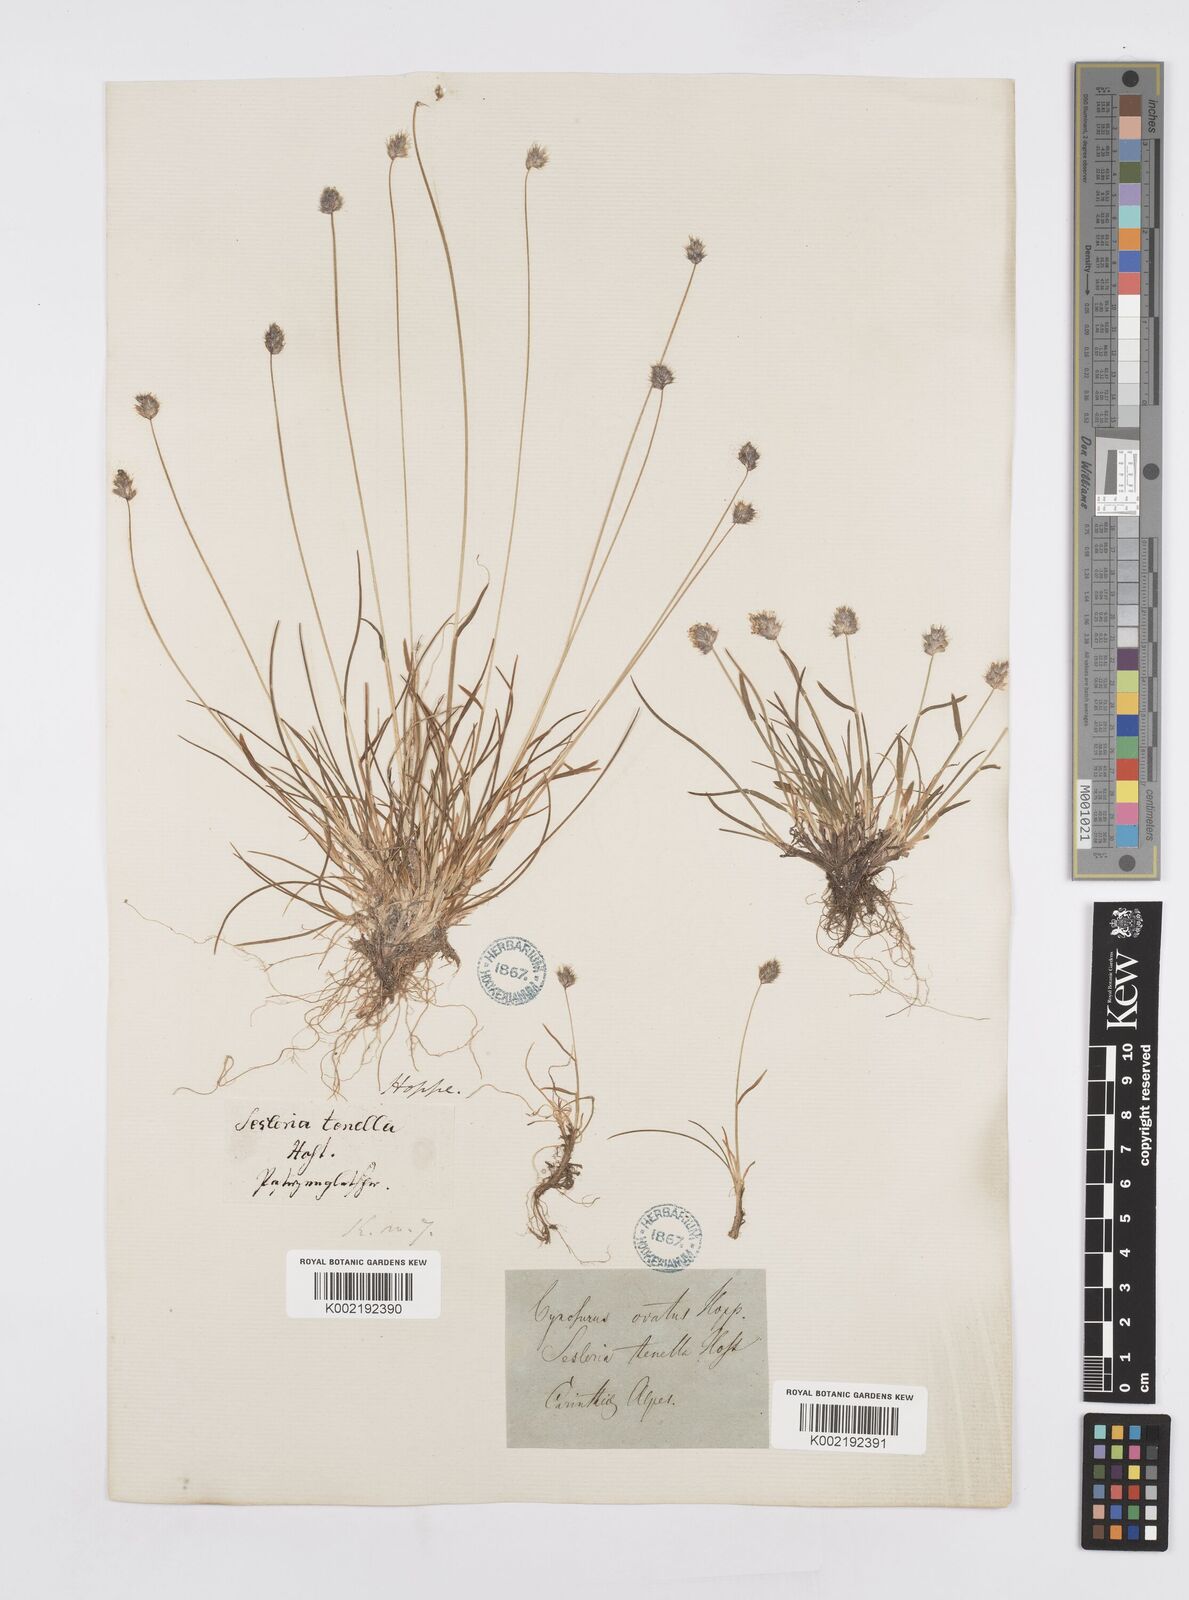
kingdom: Plantae
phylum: Tracheophyta
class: Liliopsida
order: Poales
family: Poaceae
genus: Psilathera
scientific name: Psilathera ovata
